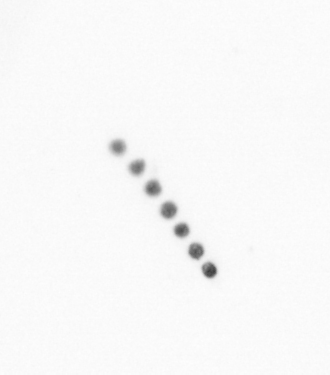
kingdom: Chromista
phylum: Ochrophyta
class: Bacillariophyceae
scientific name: Bacillariophyceae
